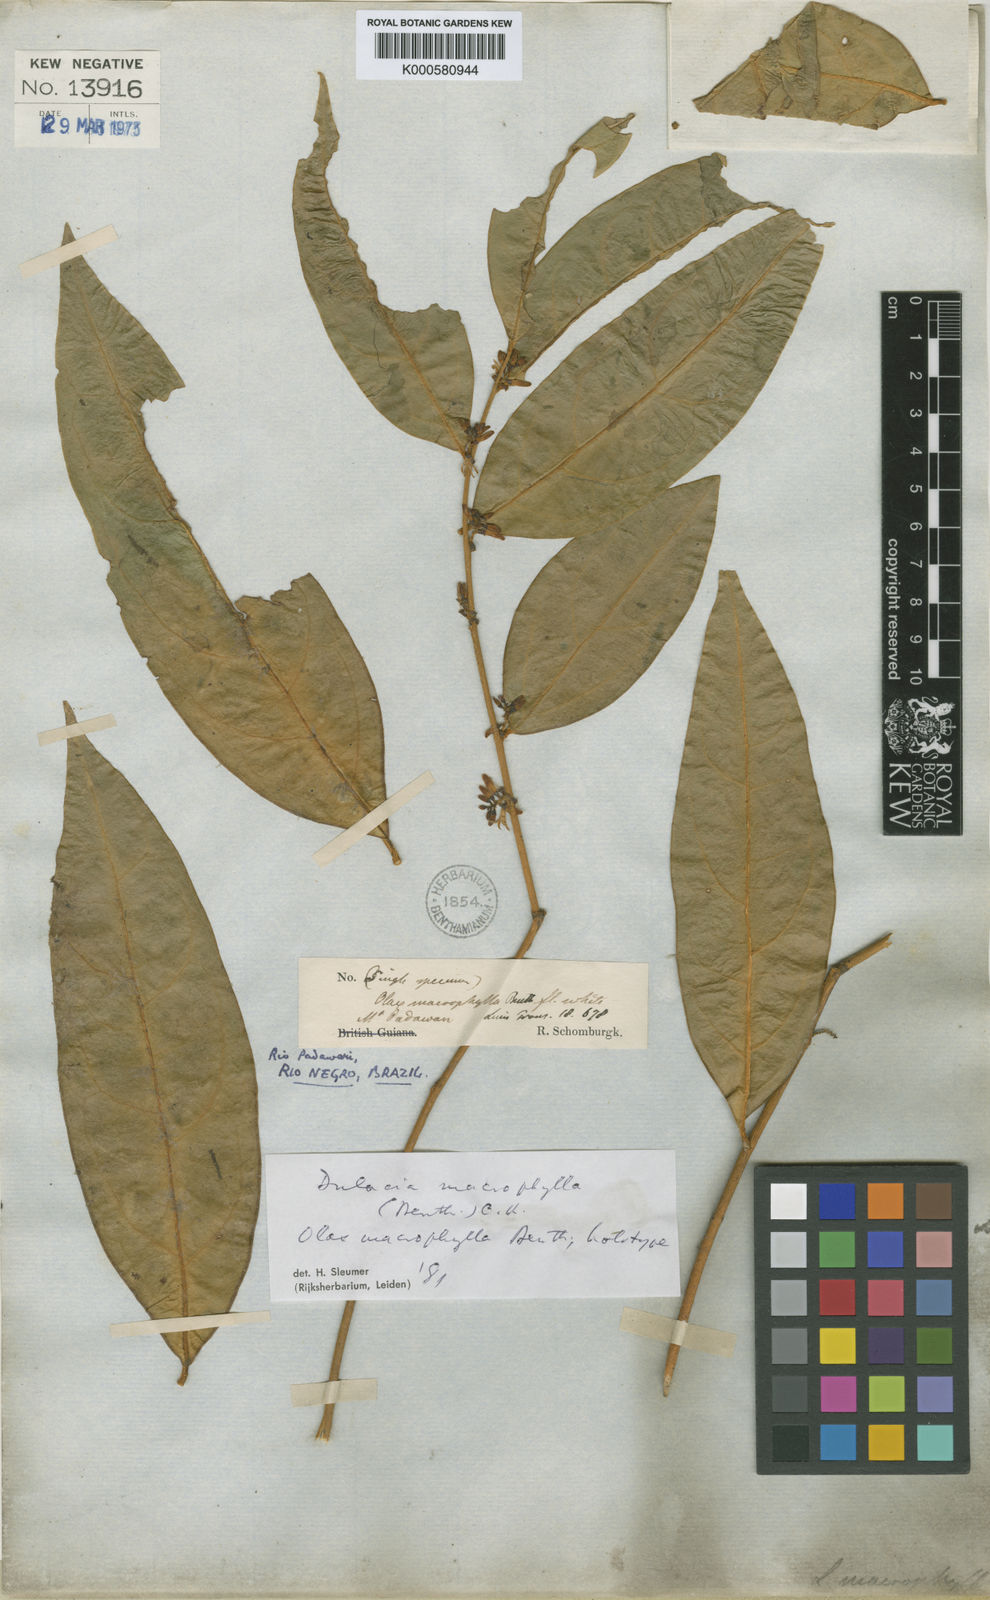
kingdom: Plantae
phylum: Tracheophyta
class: Magnoliopsida
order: Santalales
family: Olacaceae
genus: Dulacia
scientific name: Dulacia macrophylla
